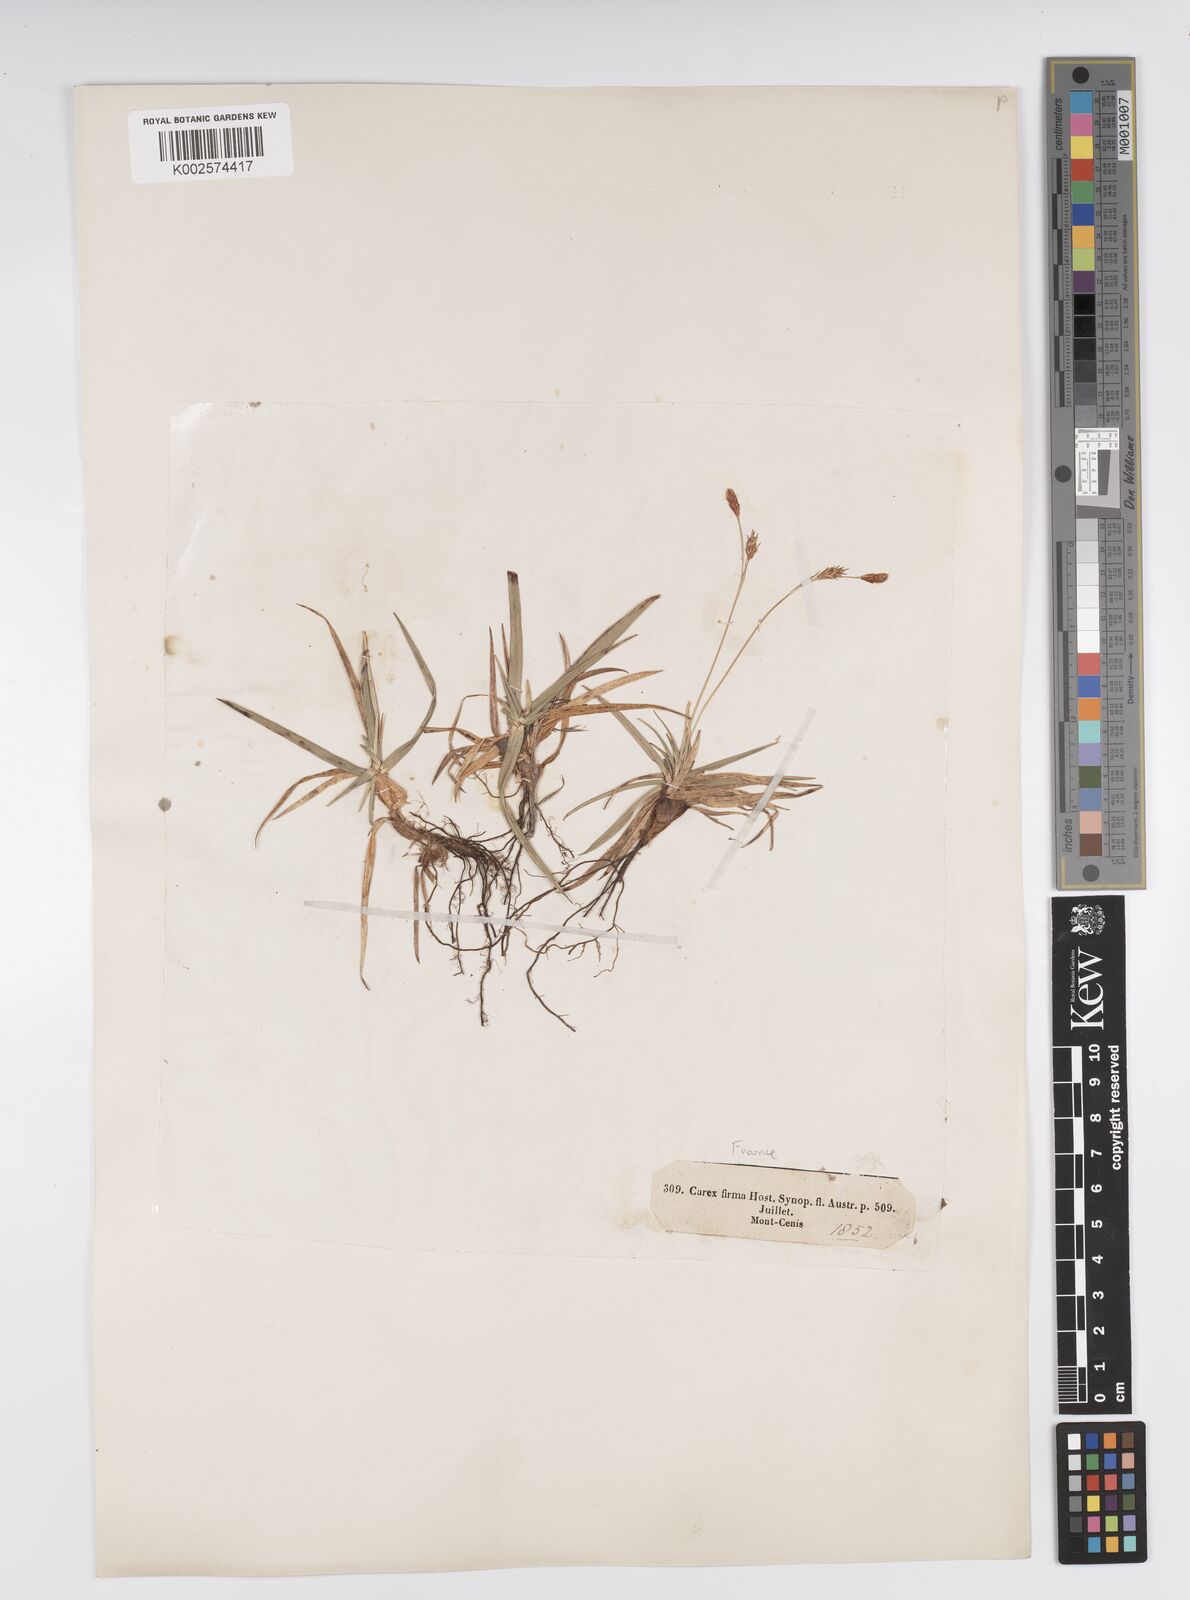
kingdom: Plantae
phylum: Tracheophyta
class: Liliopsida
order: Poales
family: Cyperaceae
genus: Carex
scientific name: Carex firma
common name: Dwarf pillow sedge
